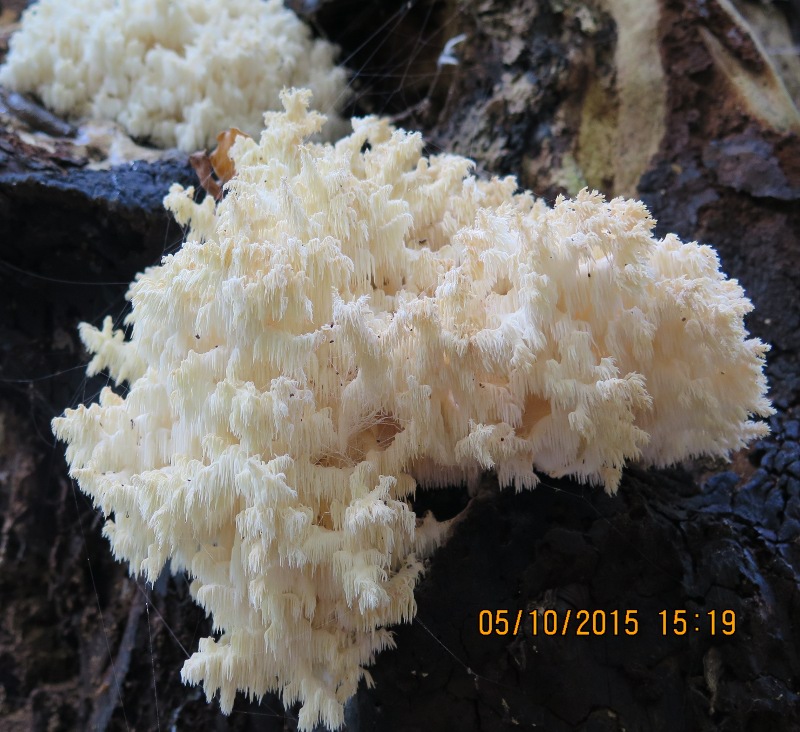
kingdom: Fungi
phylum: Basidiomycota
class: Agaricomycetes
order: Russulales
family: Hericiaceae
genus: Hericium
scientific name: Hericium coralloides
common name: koralpigsvamp
